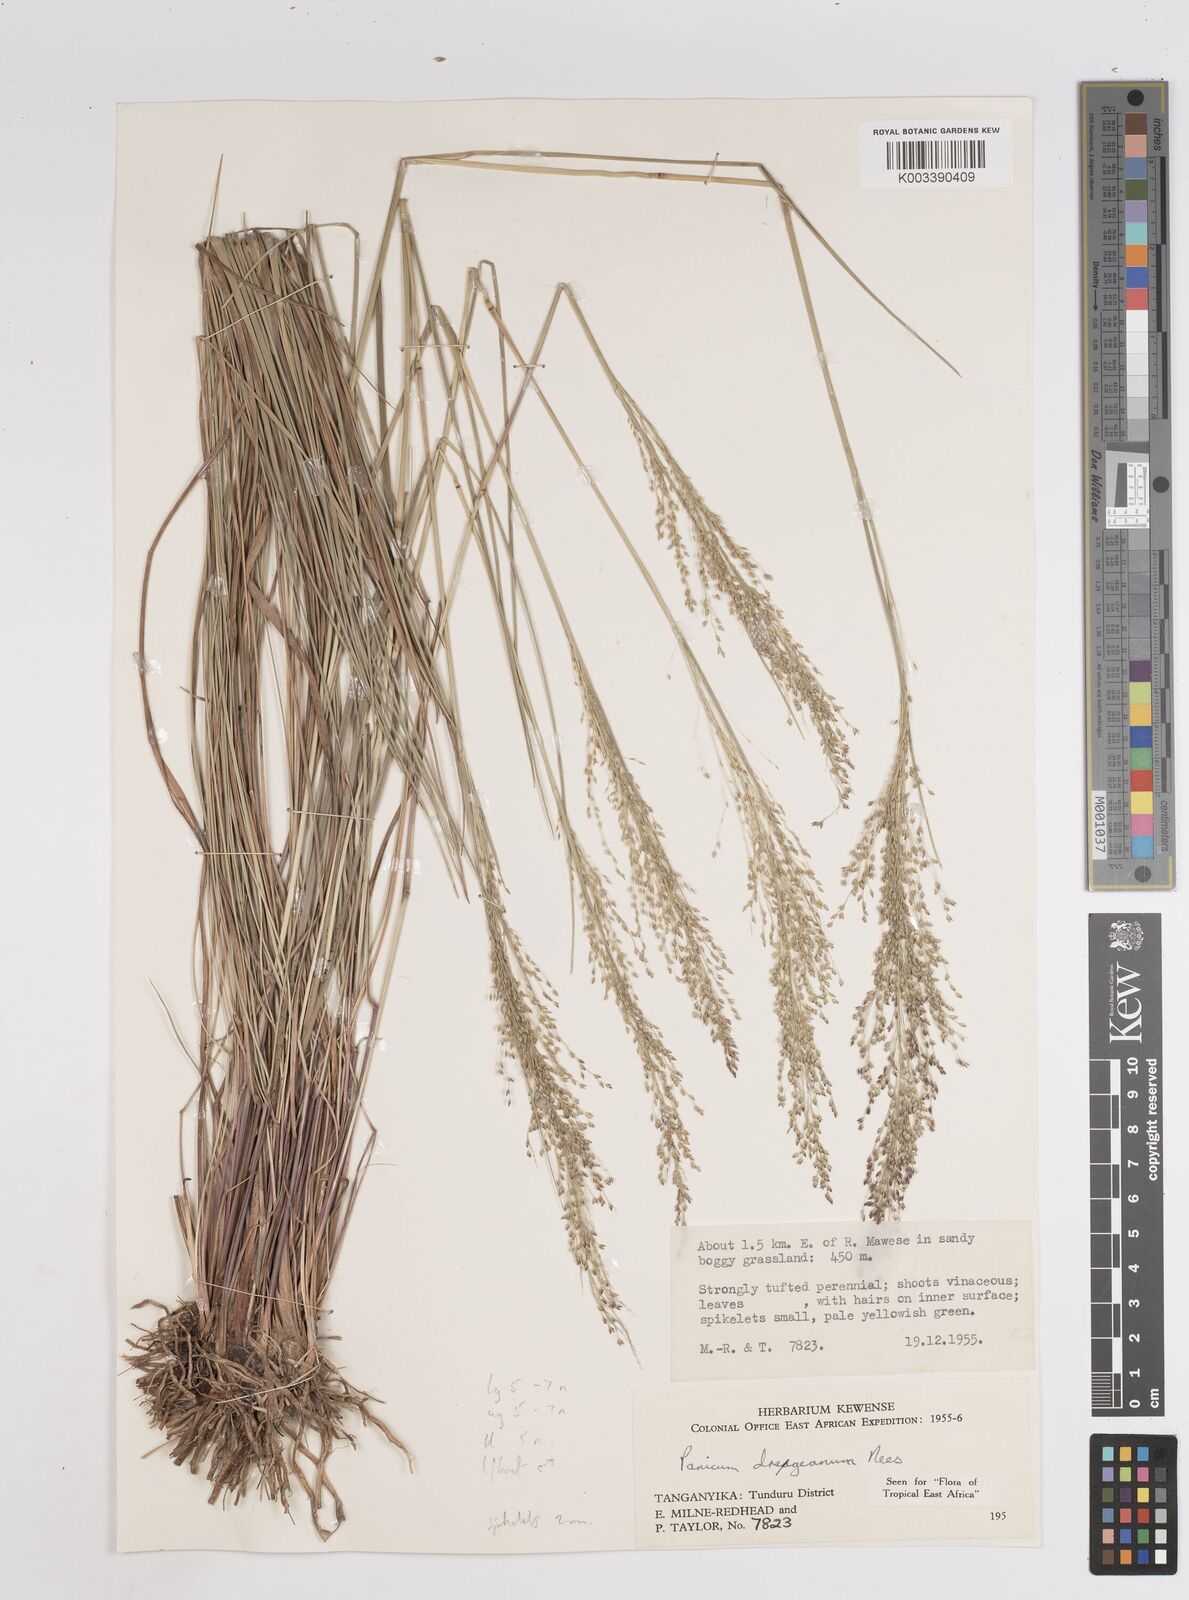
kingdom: Plantae
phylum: Tracheophyta
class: Liliopsida
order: Poales
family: Poaceae
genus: Panicum
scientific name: Panicum dregeanum
